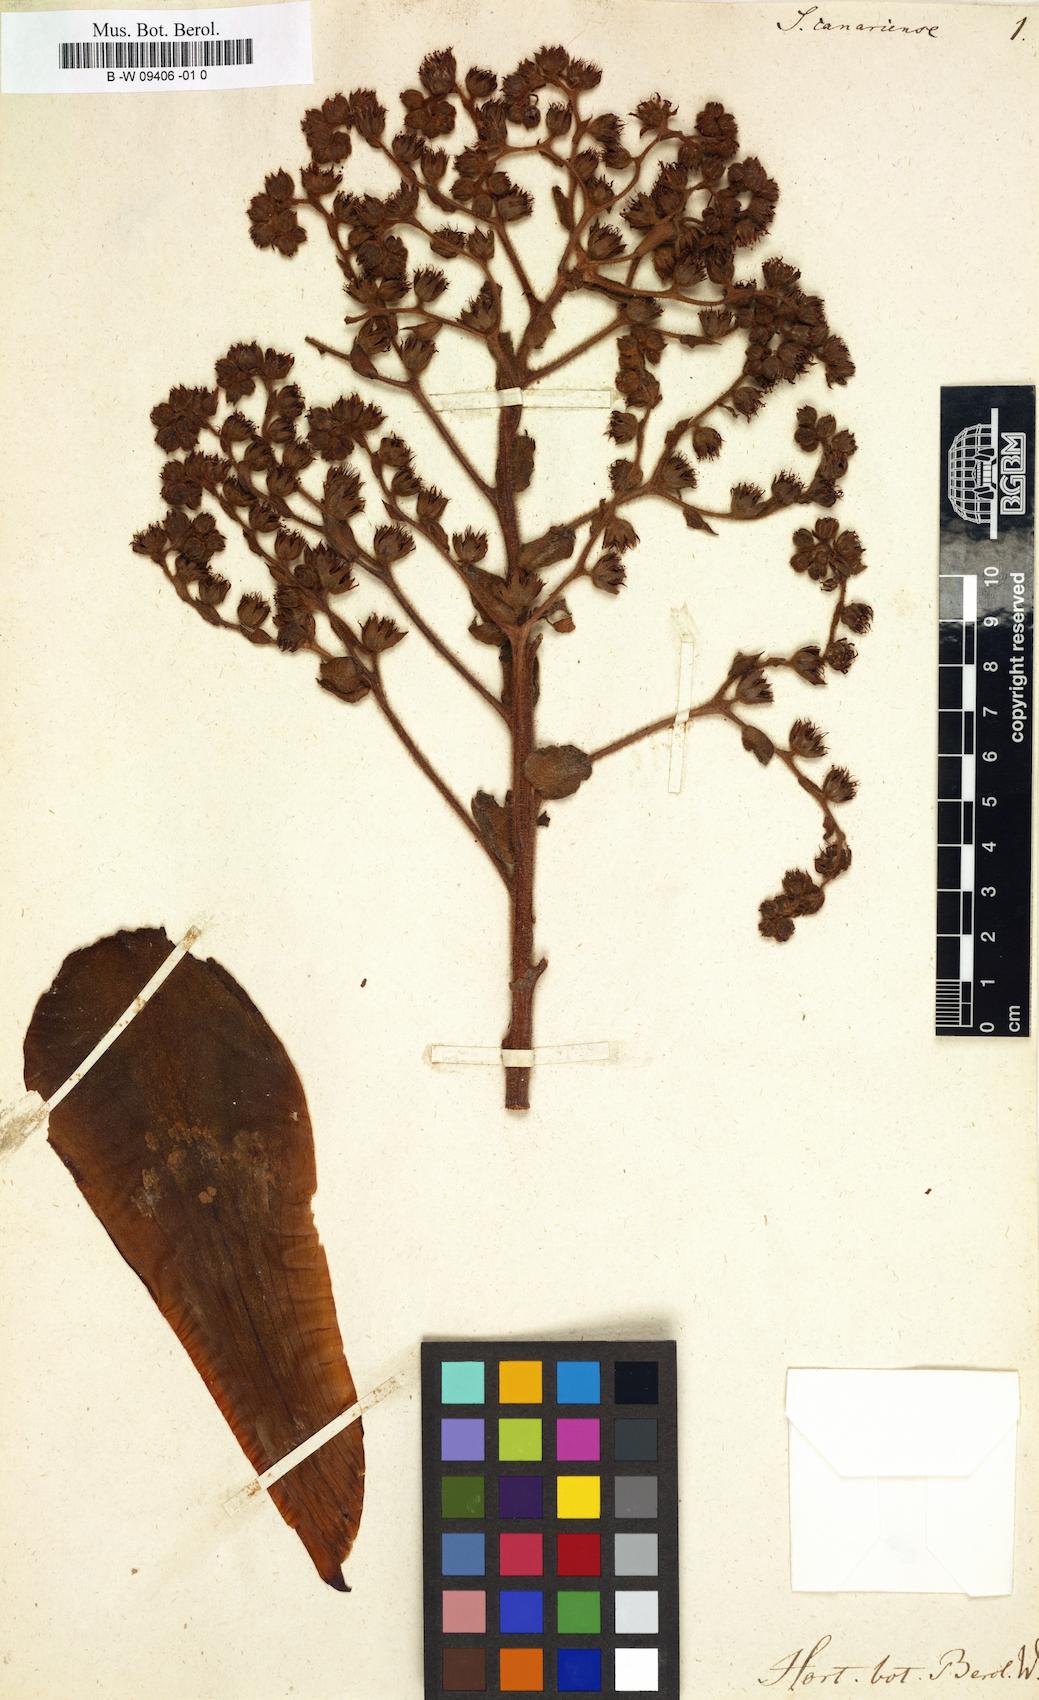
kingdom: Plantae
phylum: Tracheophyta
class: Magnoliopsida
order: Saxifragales
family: Crassulaceae
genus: Aeonium
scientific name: Aeonium canariense
